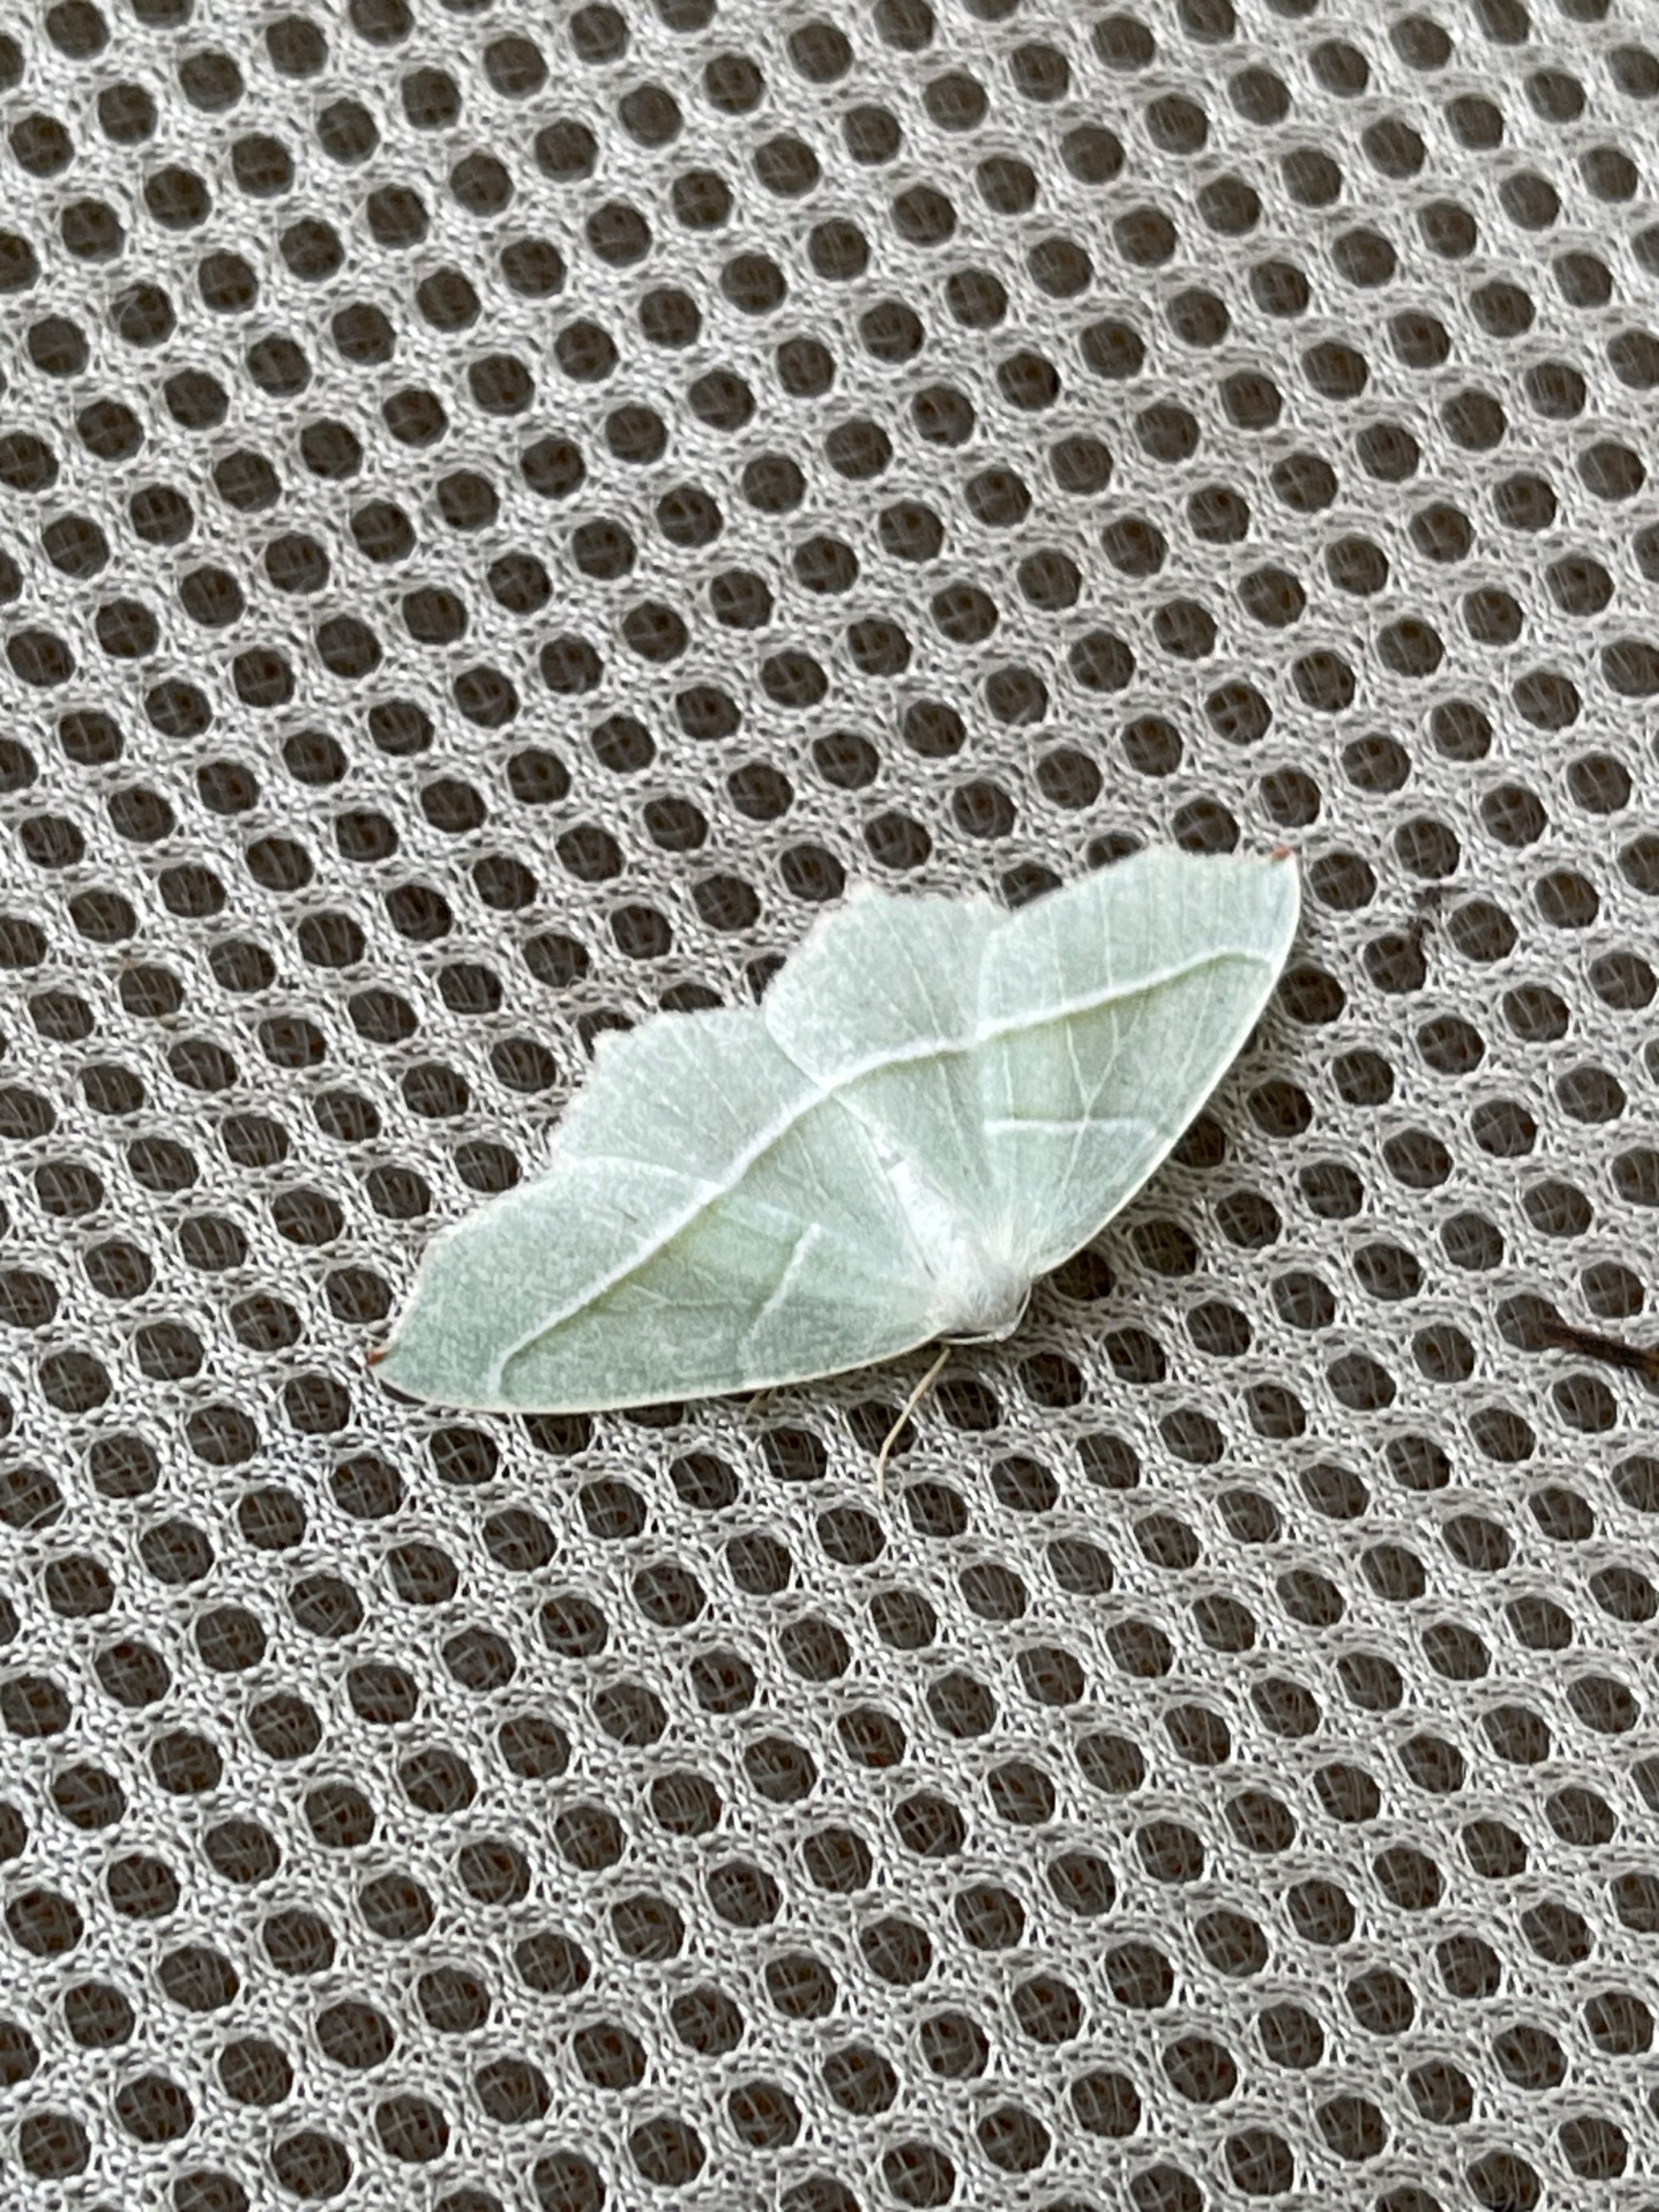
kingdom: Animalia
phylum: Arthropoda
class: Insecta
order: Lepidoptera
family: Geometridae
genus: Campaea
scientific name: Campaea margaritaria
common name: Perlemåler
